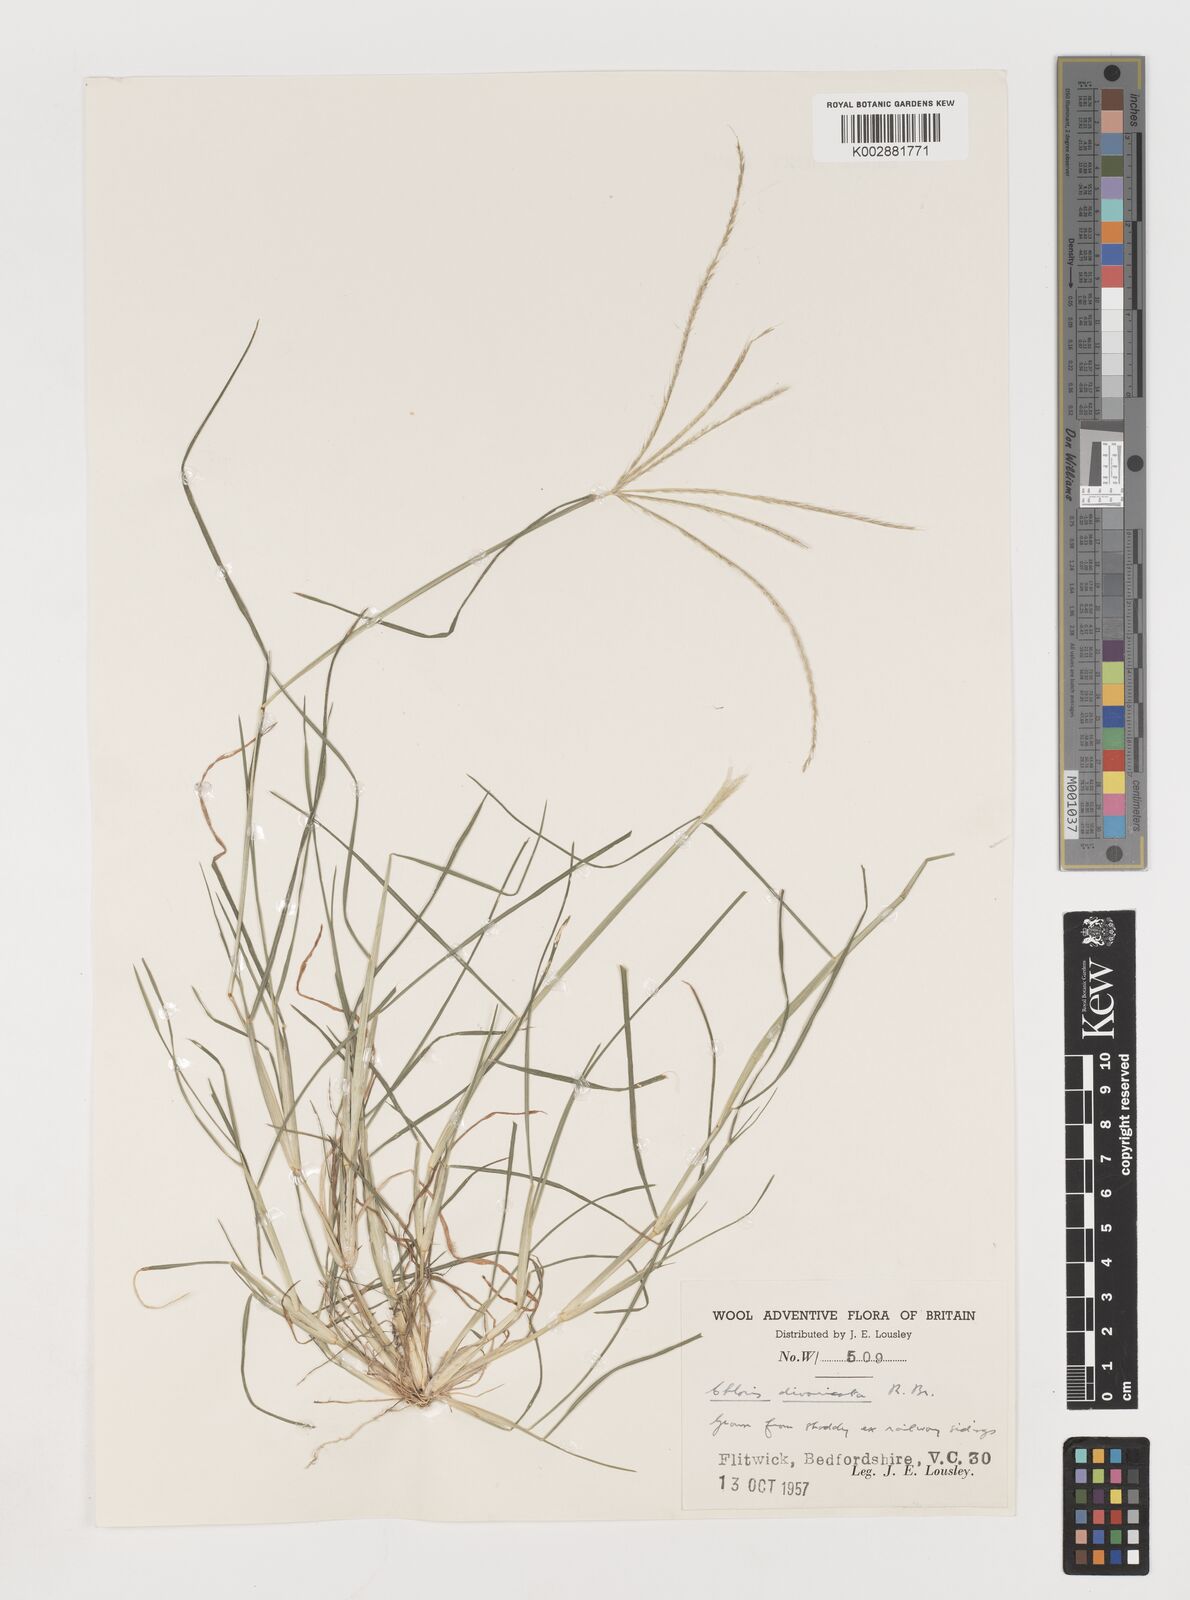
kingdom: Plantae
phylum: Tracheophyta
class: Liliopsida
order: Poales
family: Poaceae
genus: Chloris
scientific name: Chloris divaricata
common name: Spreading windmill grass
